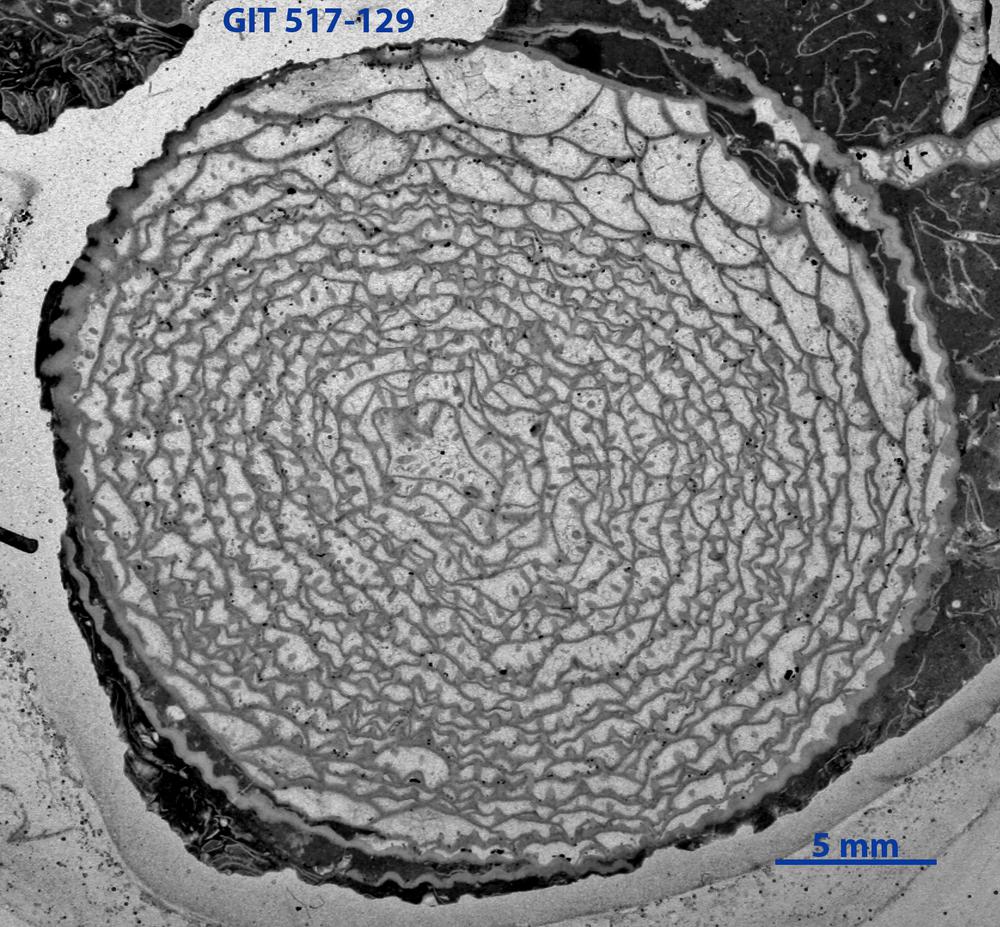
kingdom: Animalia
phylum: Cnidaria
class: Anthozoa
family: Cyathophyllidae
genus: Cystiphyllum
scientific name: Cystiphyllum visbyense
